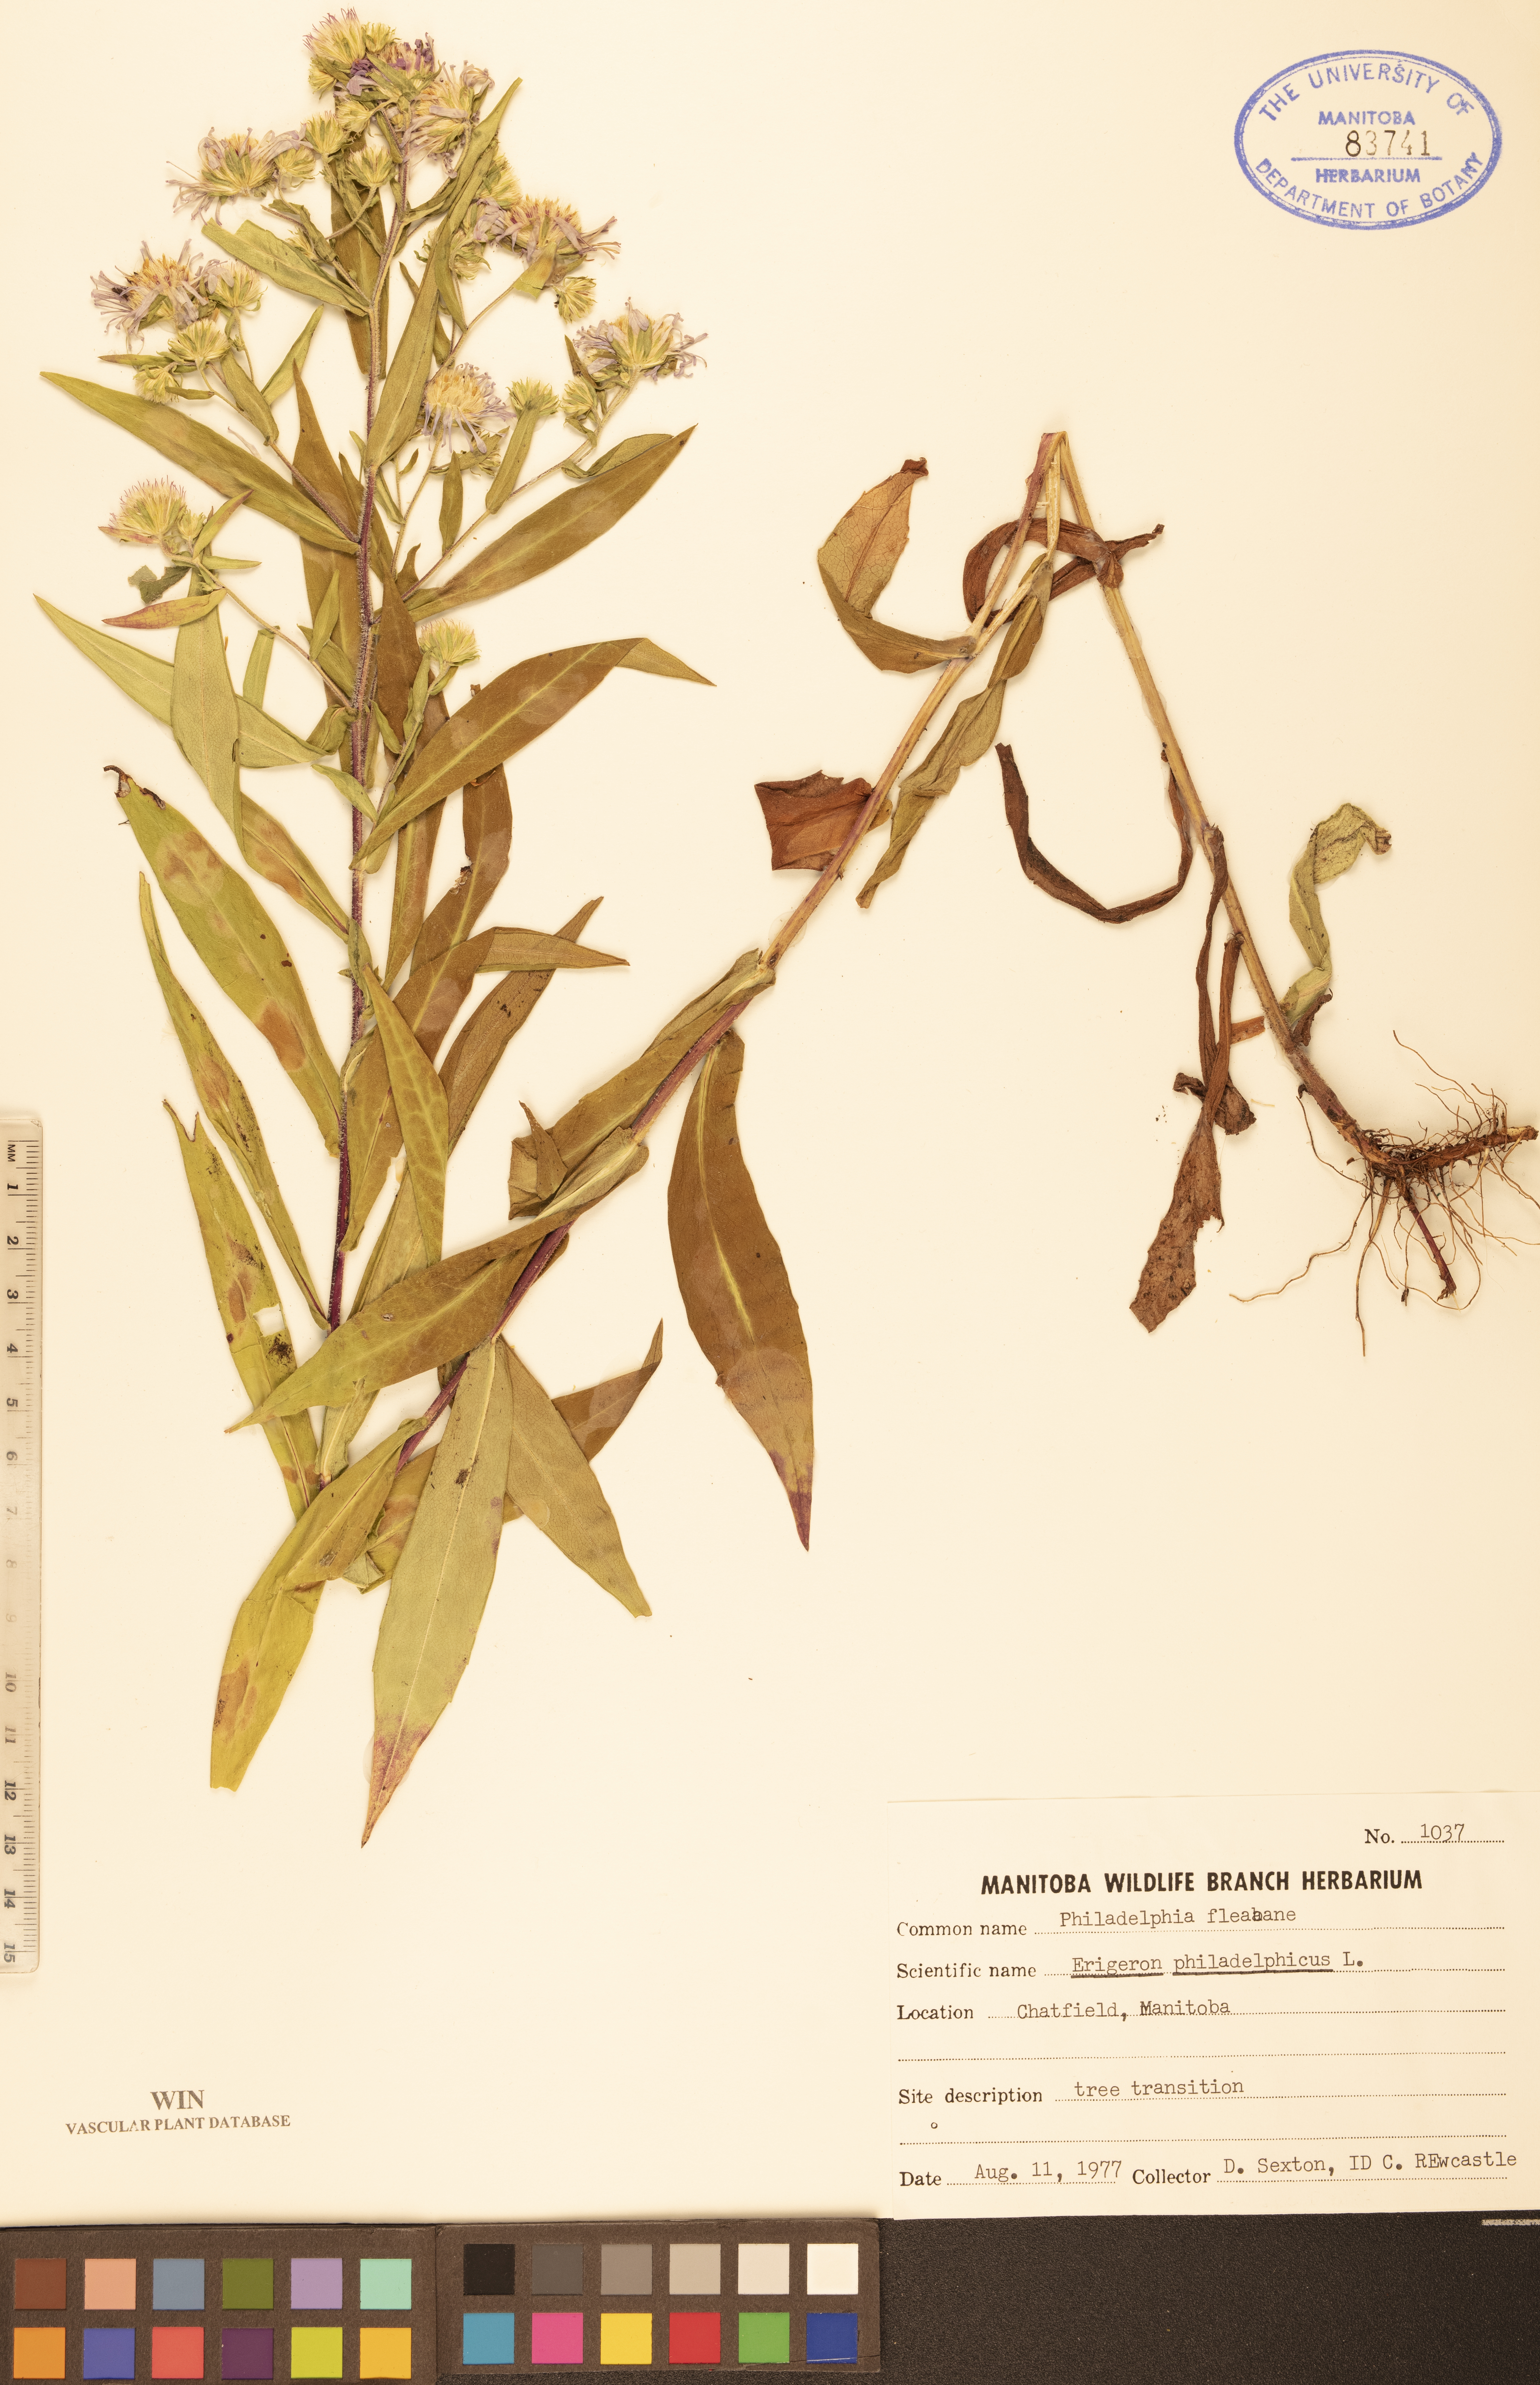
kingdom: Plantae
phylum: Tracheophyta
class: Magnoliopsida
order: Asterales
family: Asteraceae
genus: Erigeron
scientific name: Erigeron philadelphicus
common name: Robin's-plantain
